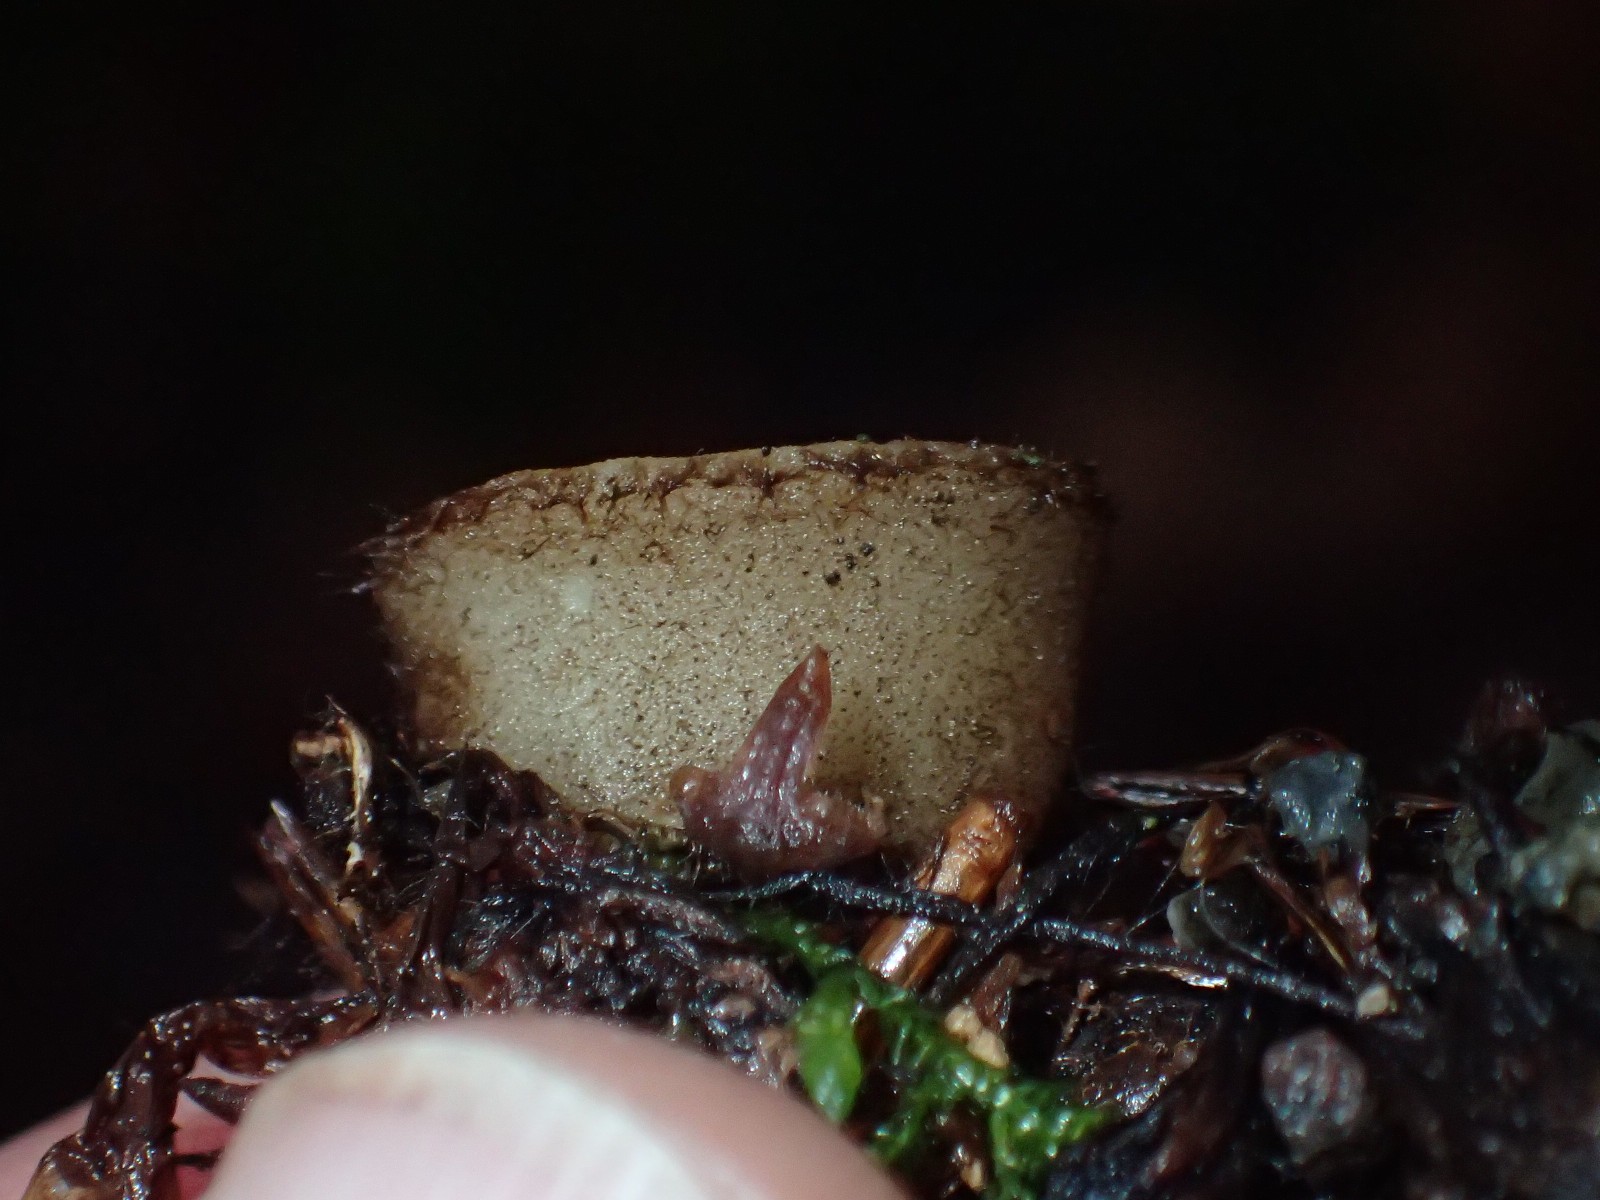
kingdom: Fungi
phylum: Ascomycota
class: Pezizomycetes
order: Pezizales
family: Pyronemataceae
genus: Humaria
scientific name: Humaria hemisphaerica
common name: halvkugleformet børstebæger
